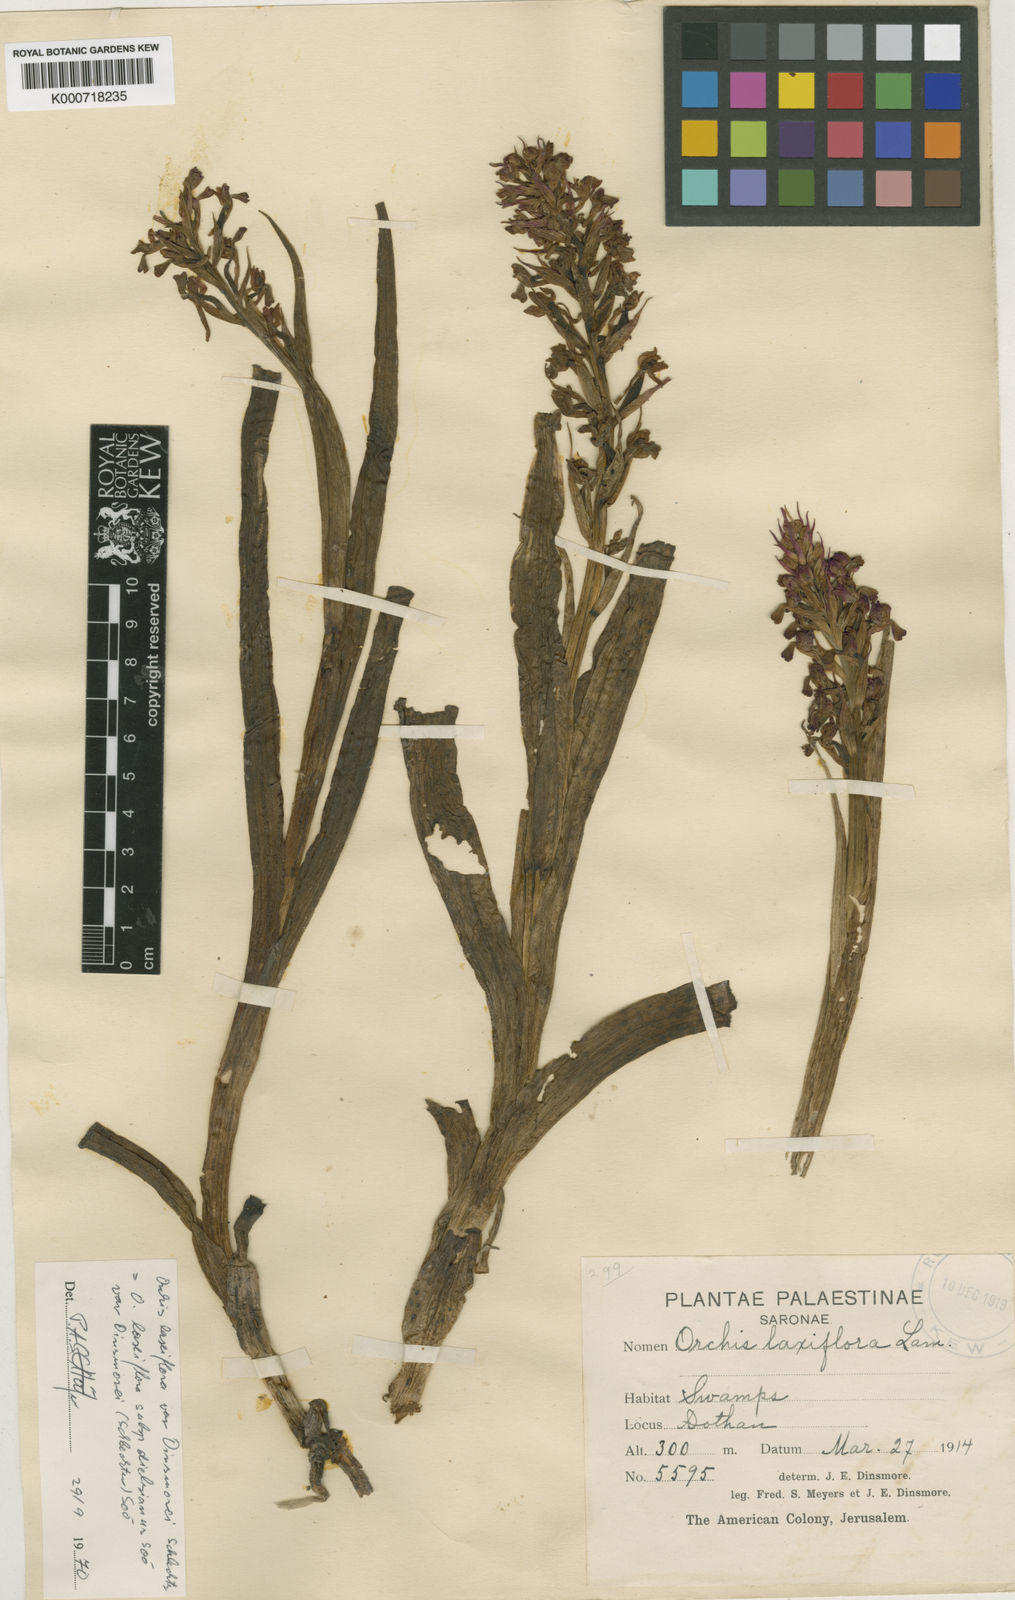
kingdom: Plantae
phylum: Tracheophyta
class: Liliopsida
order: Asparagales
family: Orchidaceae
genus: Anacamptis
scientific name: Anacamptis palustris
